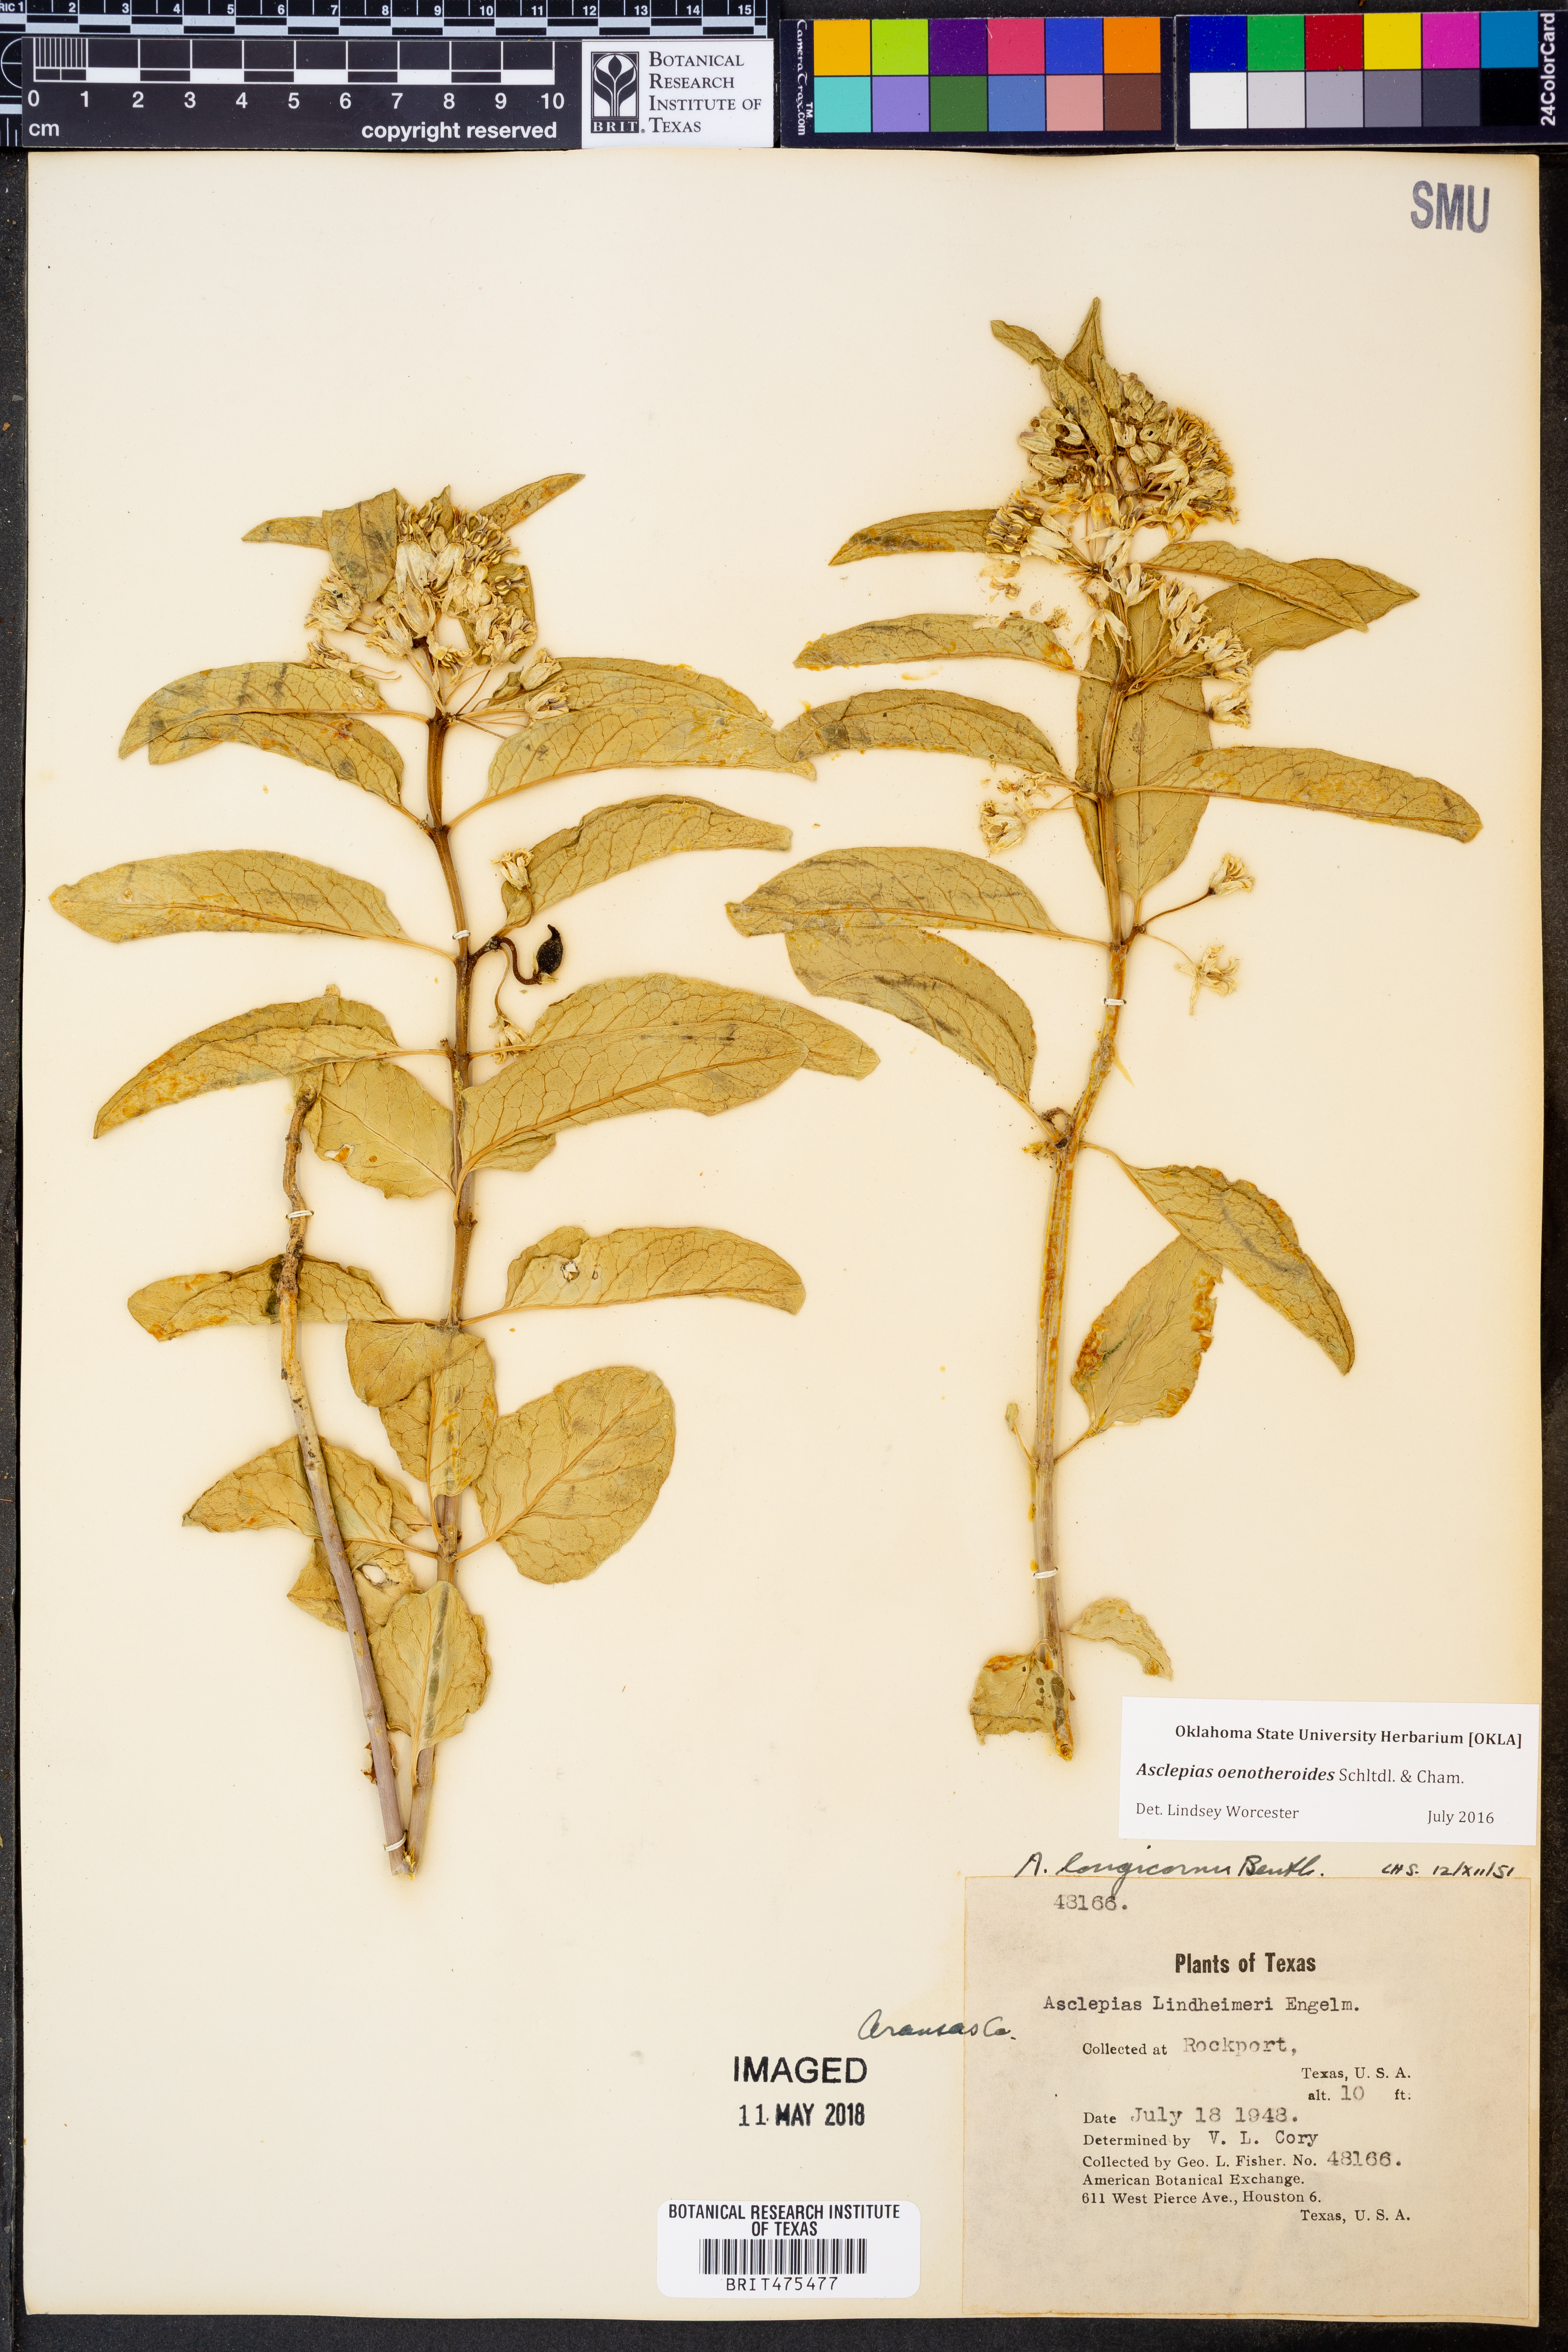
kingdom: Plantae
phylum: Tracheophyta
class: Magnoliopsida
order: Gentianales
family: Apocynaceae
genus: Asclepias
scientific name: Asclepias oenotheroides
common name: Zizotes milkweed
